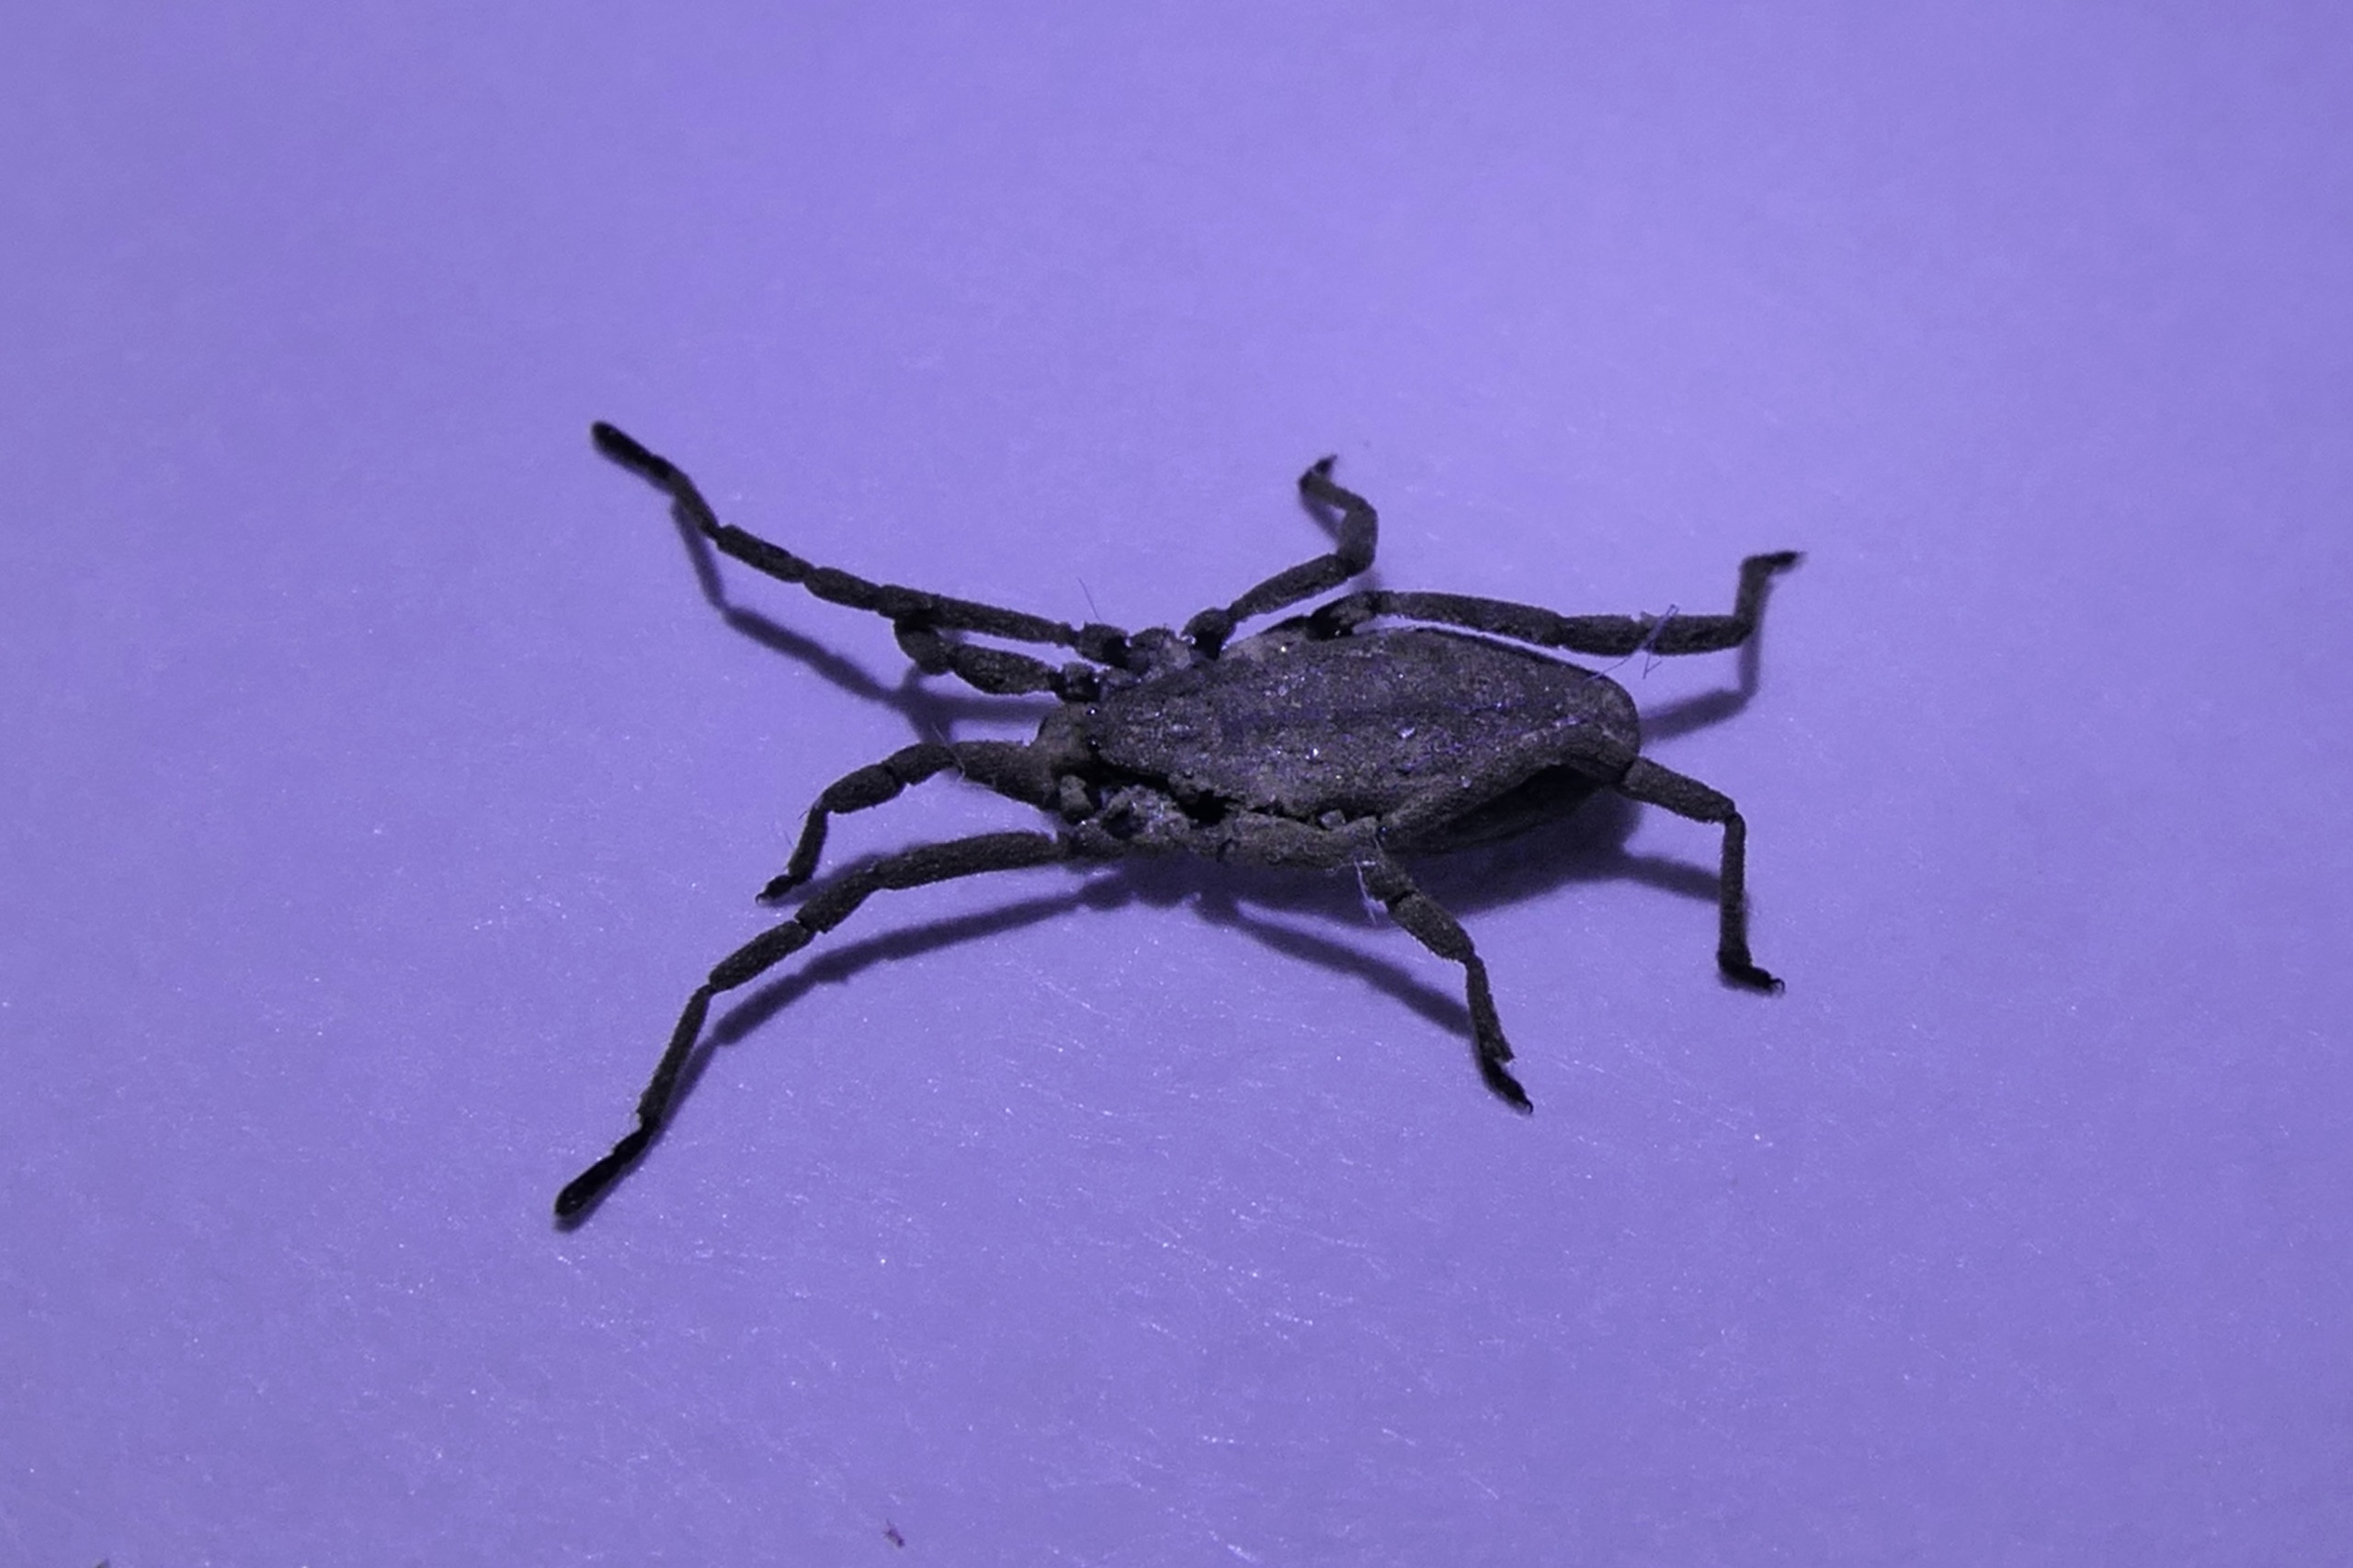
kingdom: Animalia
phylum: Arthropoda
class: Arachnida
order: Opiliones
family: Trogulidae
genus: Trogulus
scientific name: Trogulus tricarinatus
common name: Sneglemejer
